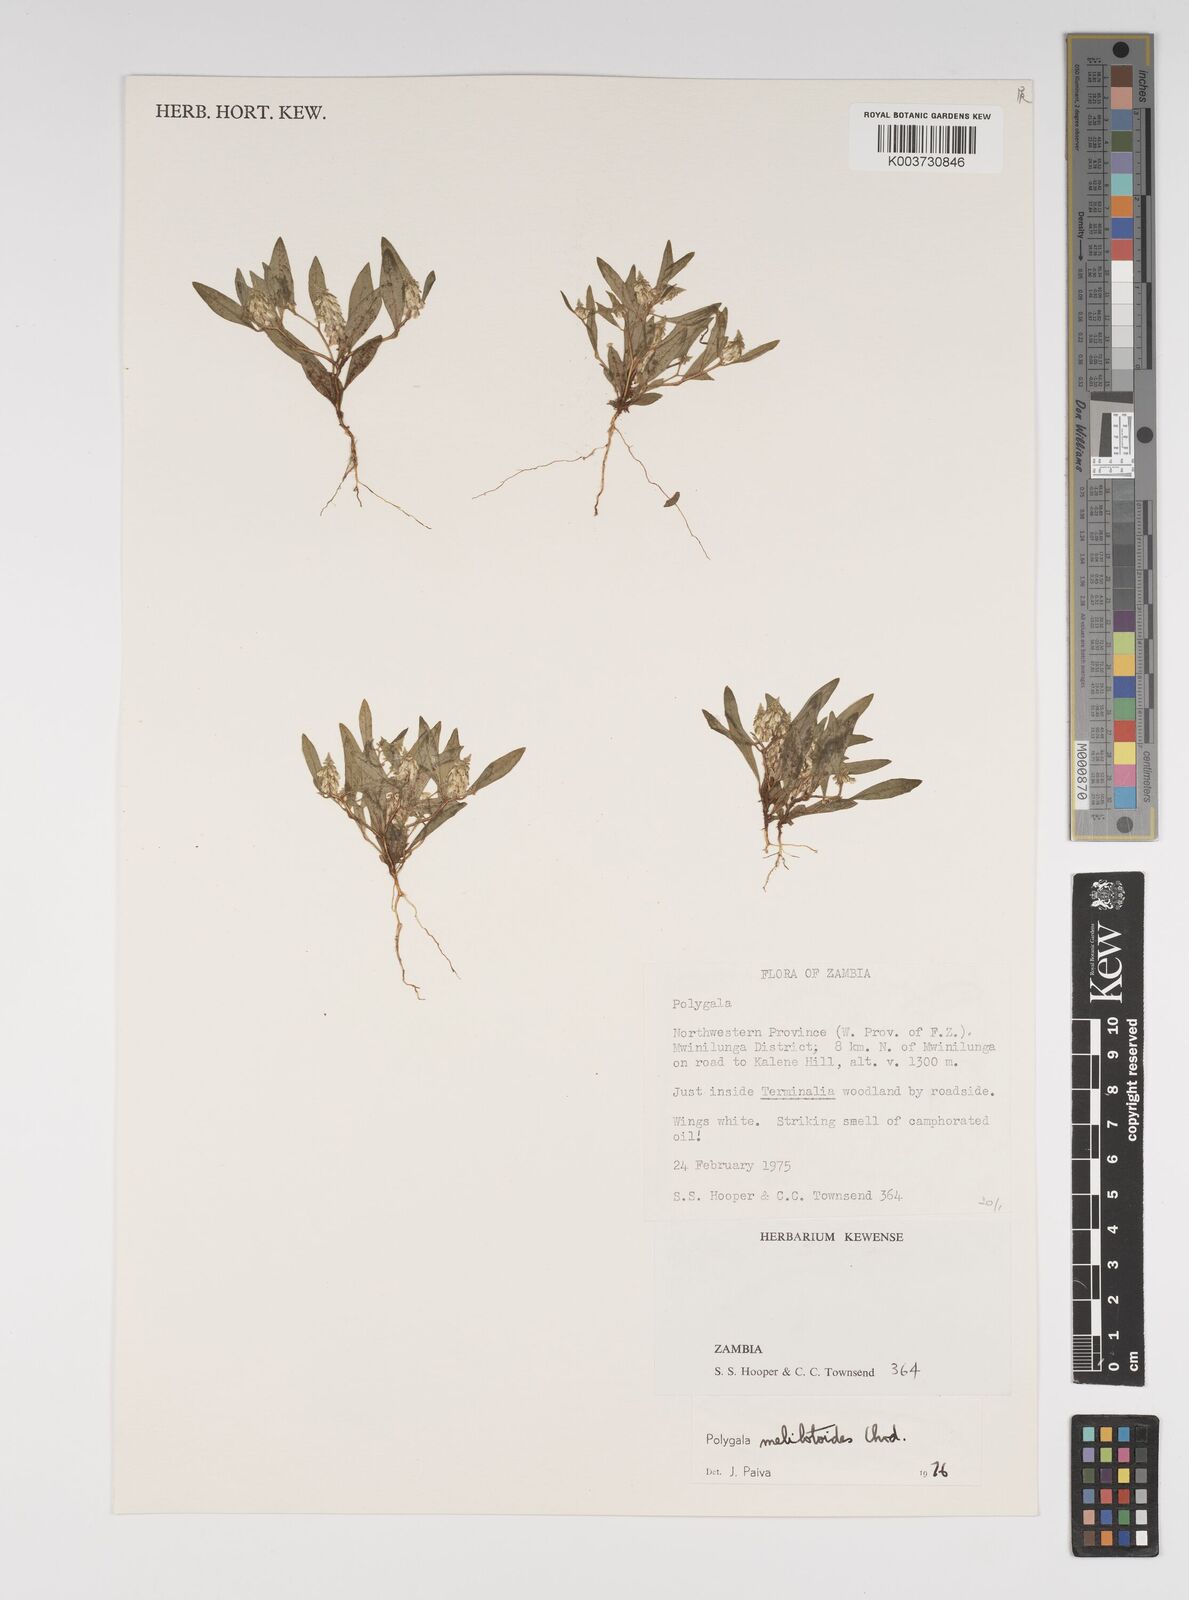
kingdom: Plantae
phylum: Tracheophyta
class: Magnoliopsida
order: Fabales
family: Polygalaceae
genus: Polygala
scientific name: Polygala melilotoides
